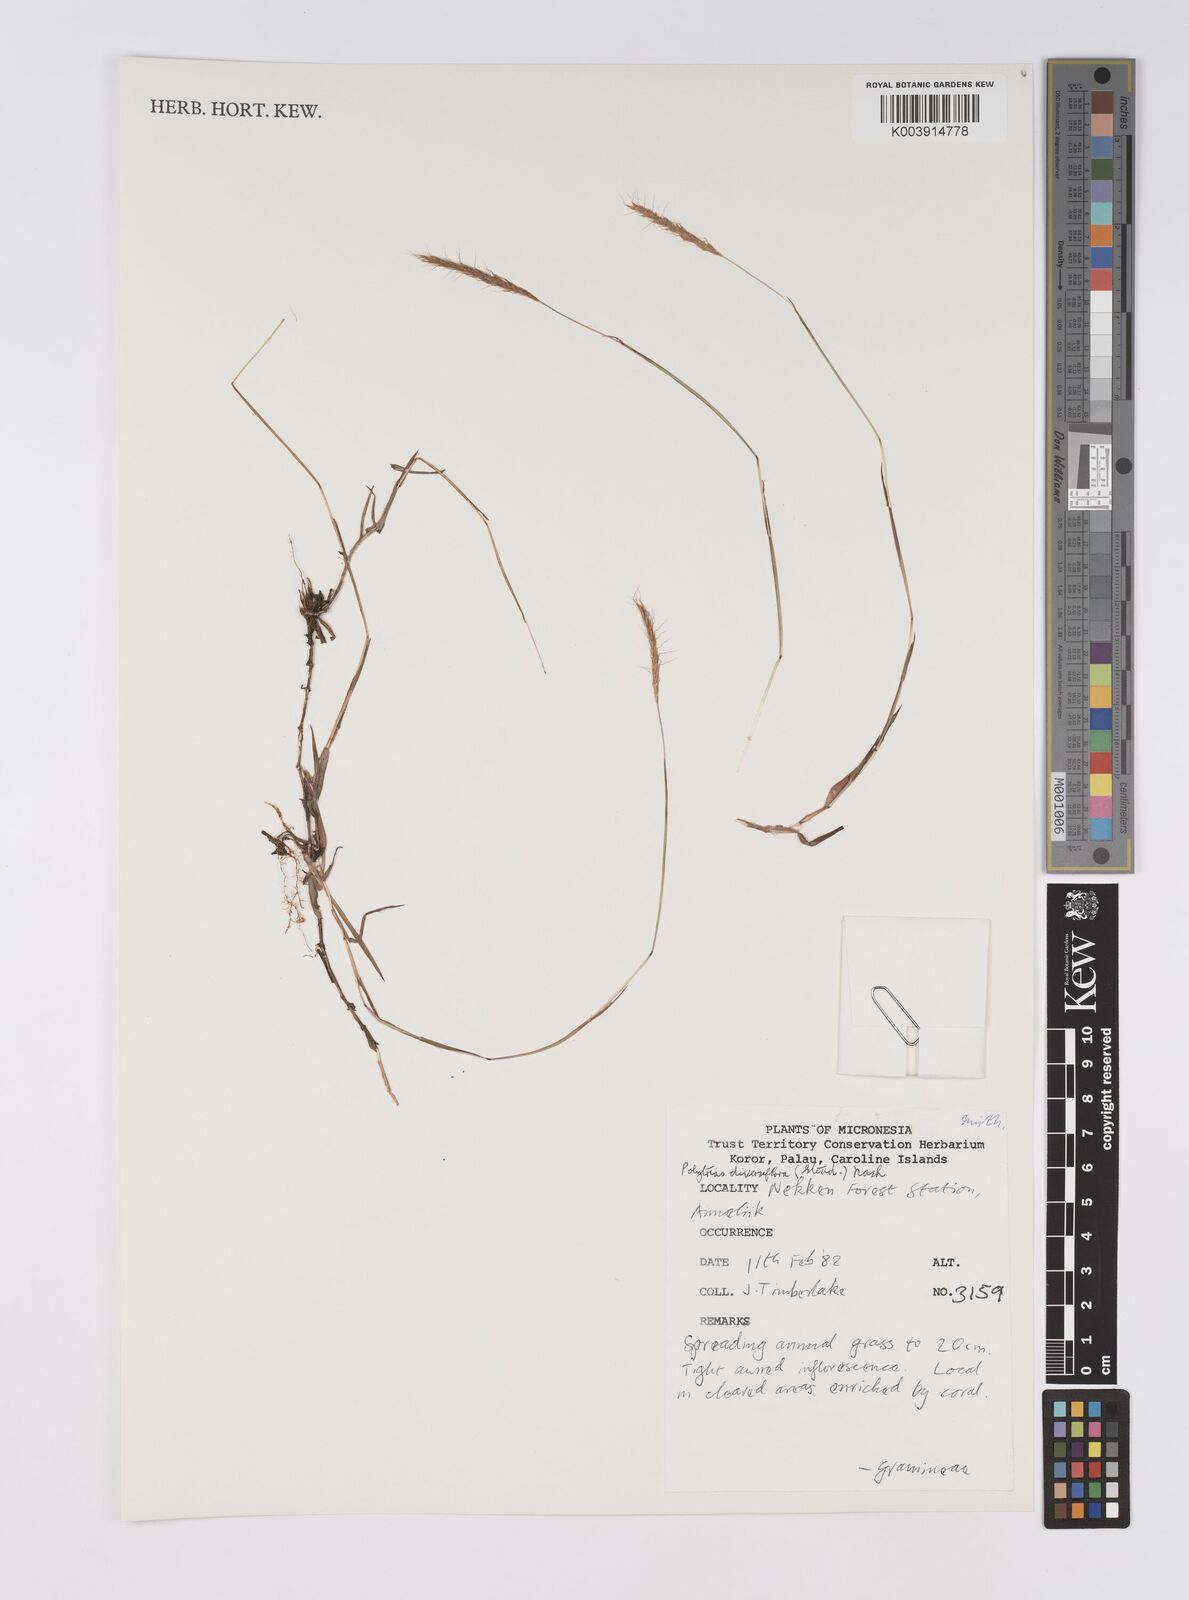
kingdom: Plantae
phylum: Tracheophyta
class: Liliopsida
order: Poales
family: Poaceae
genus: Polytrias
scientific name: Polytrias indica
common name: Indian murainagrass
